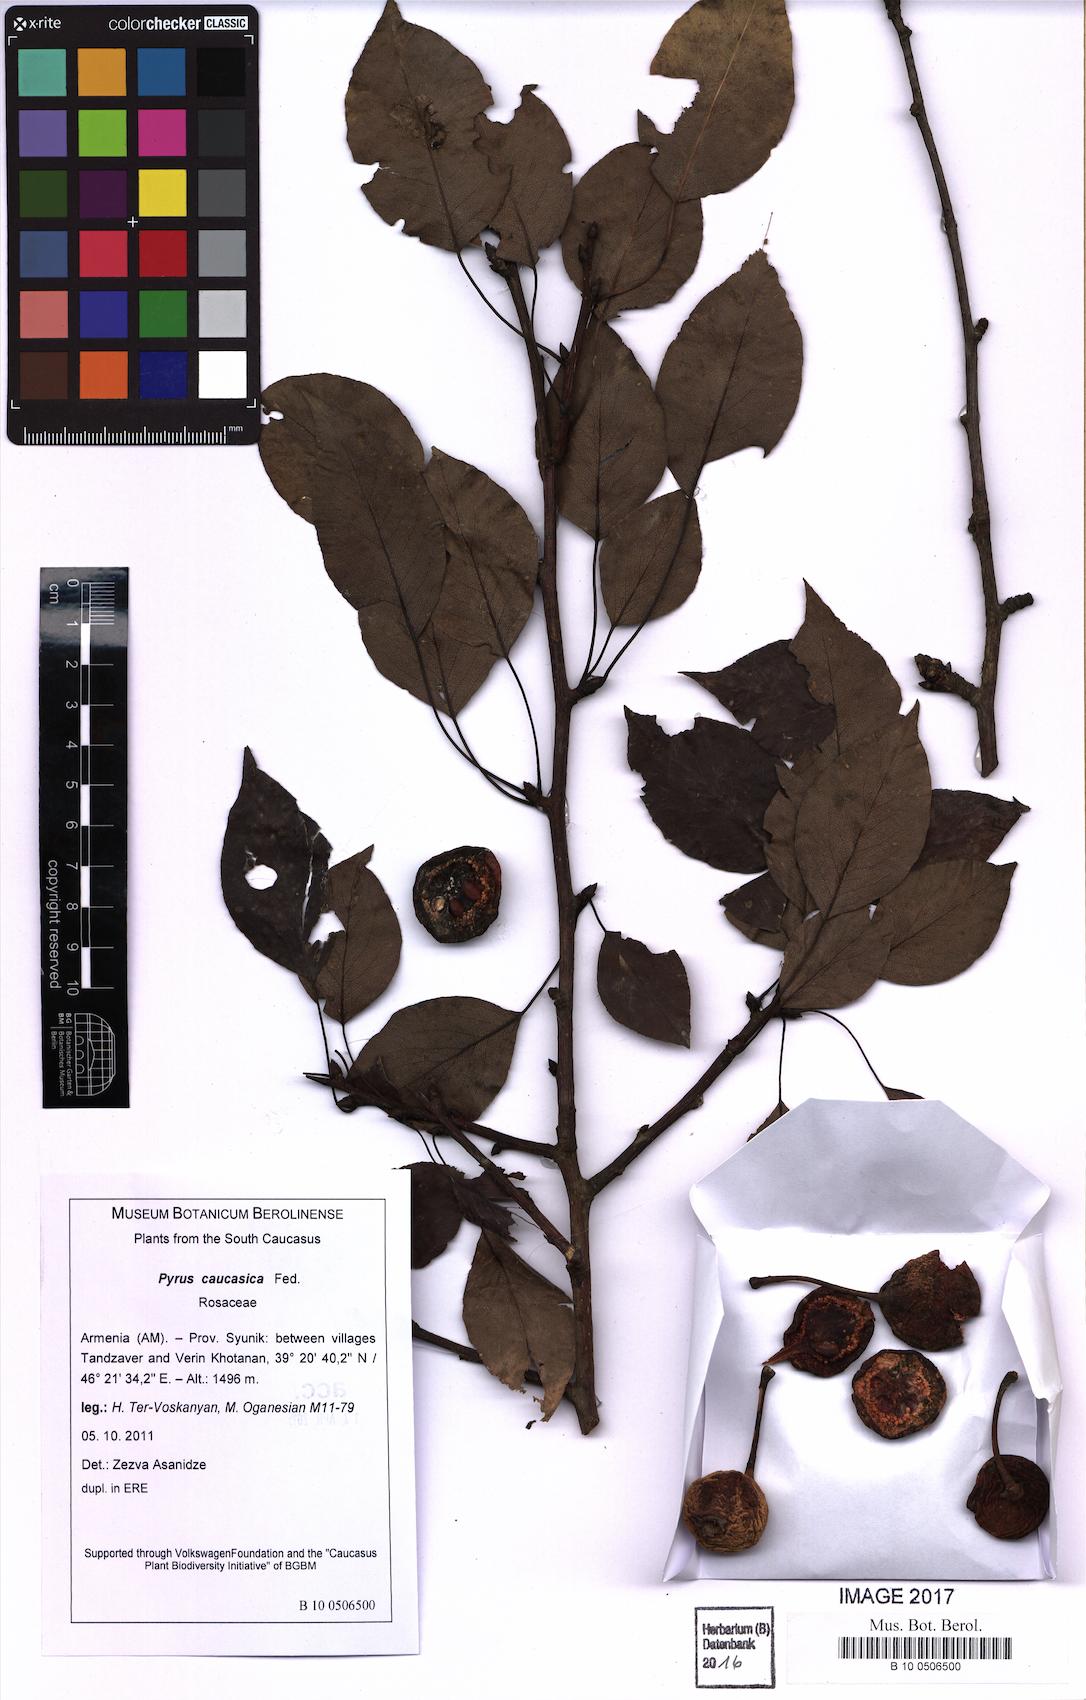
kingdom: Plantae
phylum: Tracheophyta
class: Magnoliopsida
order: Rosales
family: Rosaceae
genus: Pyrus
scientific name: Pyrus communis
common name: Pear
